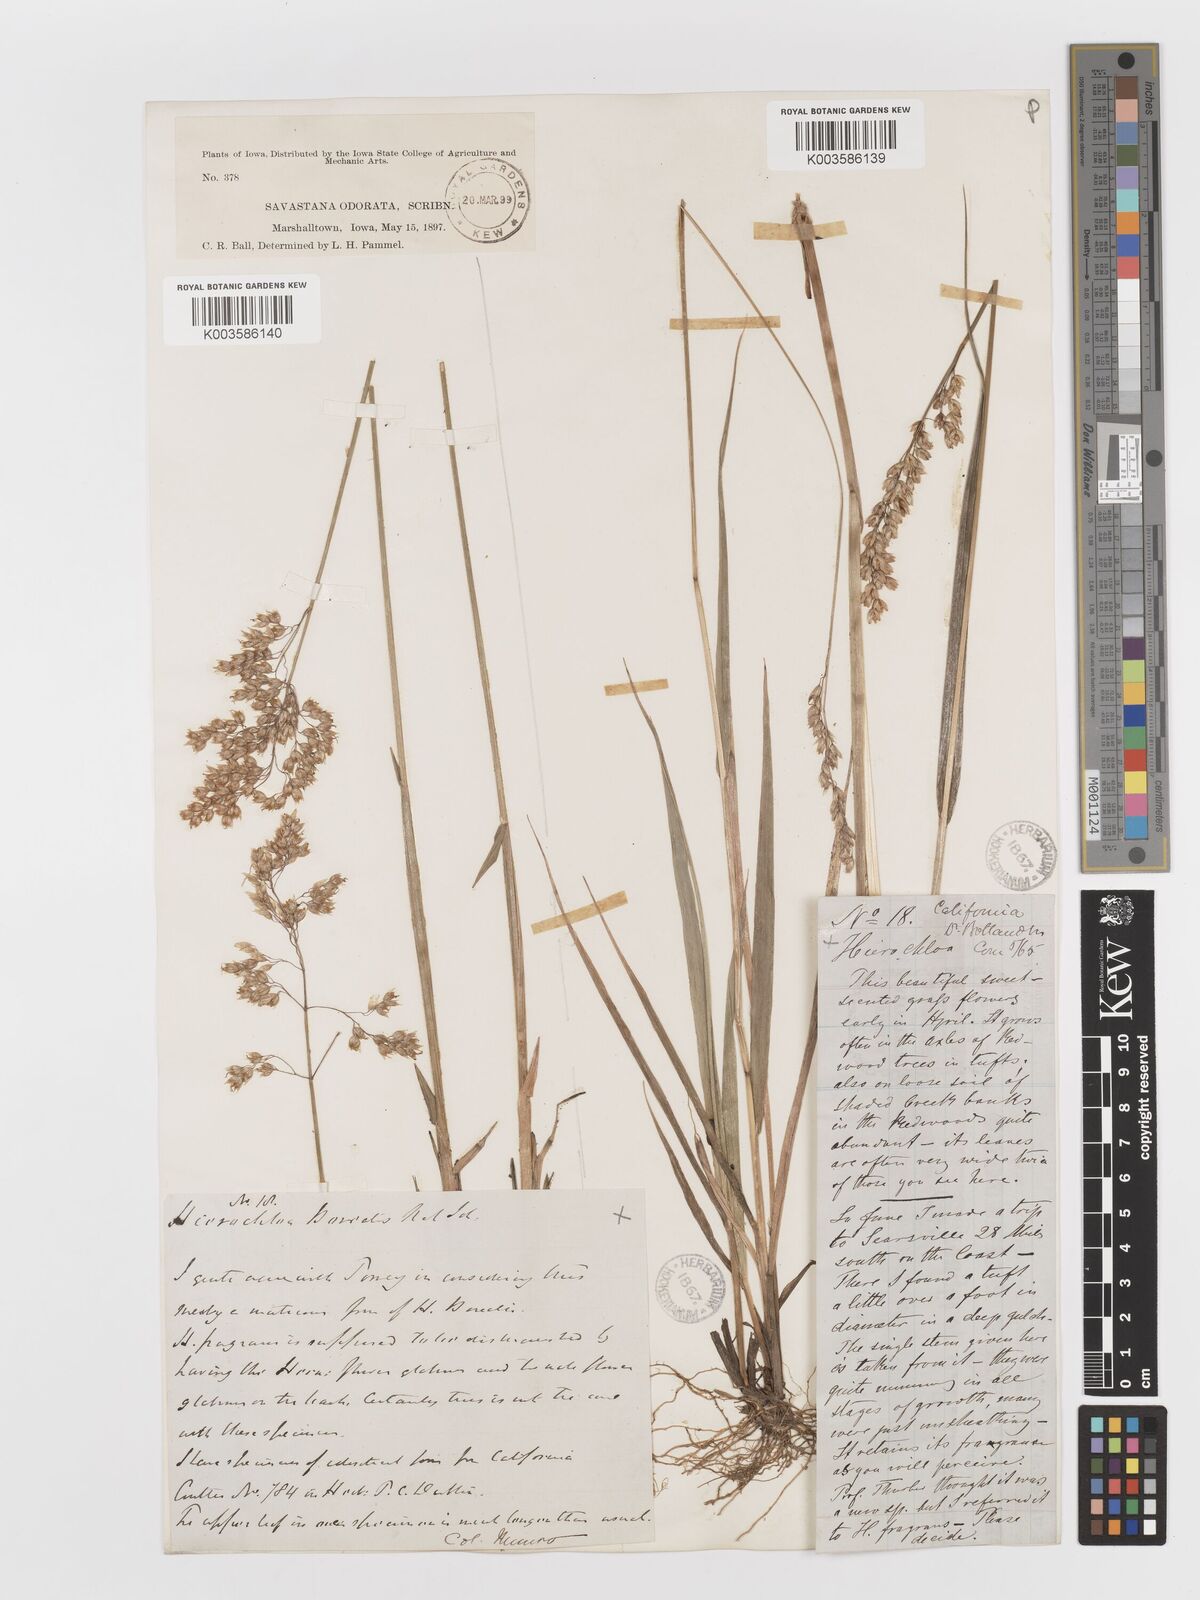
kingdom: Plantae
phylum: Tracheophyta
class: Liliopsida
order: Poales
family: Poaceae
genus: Anthoxanthum
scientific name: Anthoxanthum nitens
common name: Holy grass
